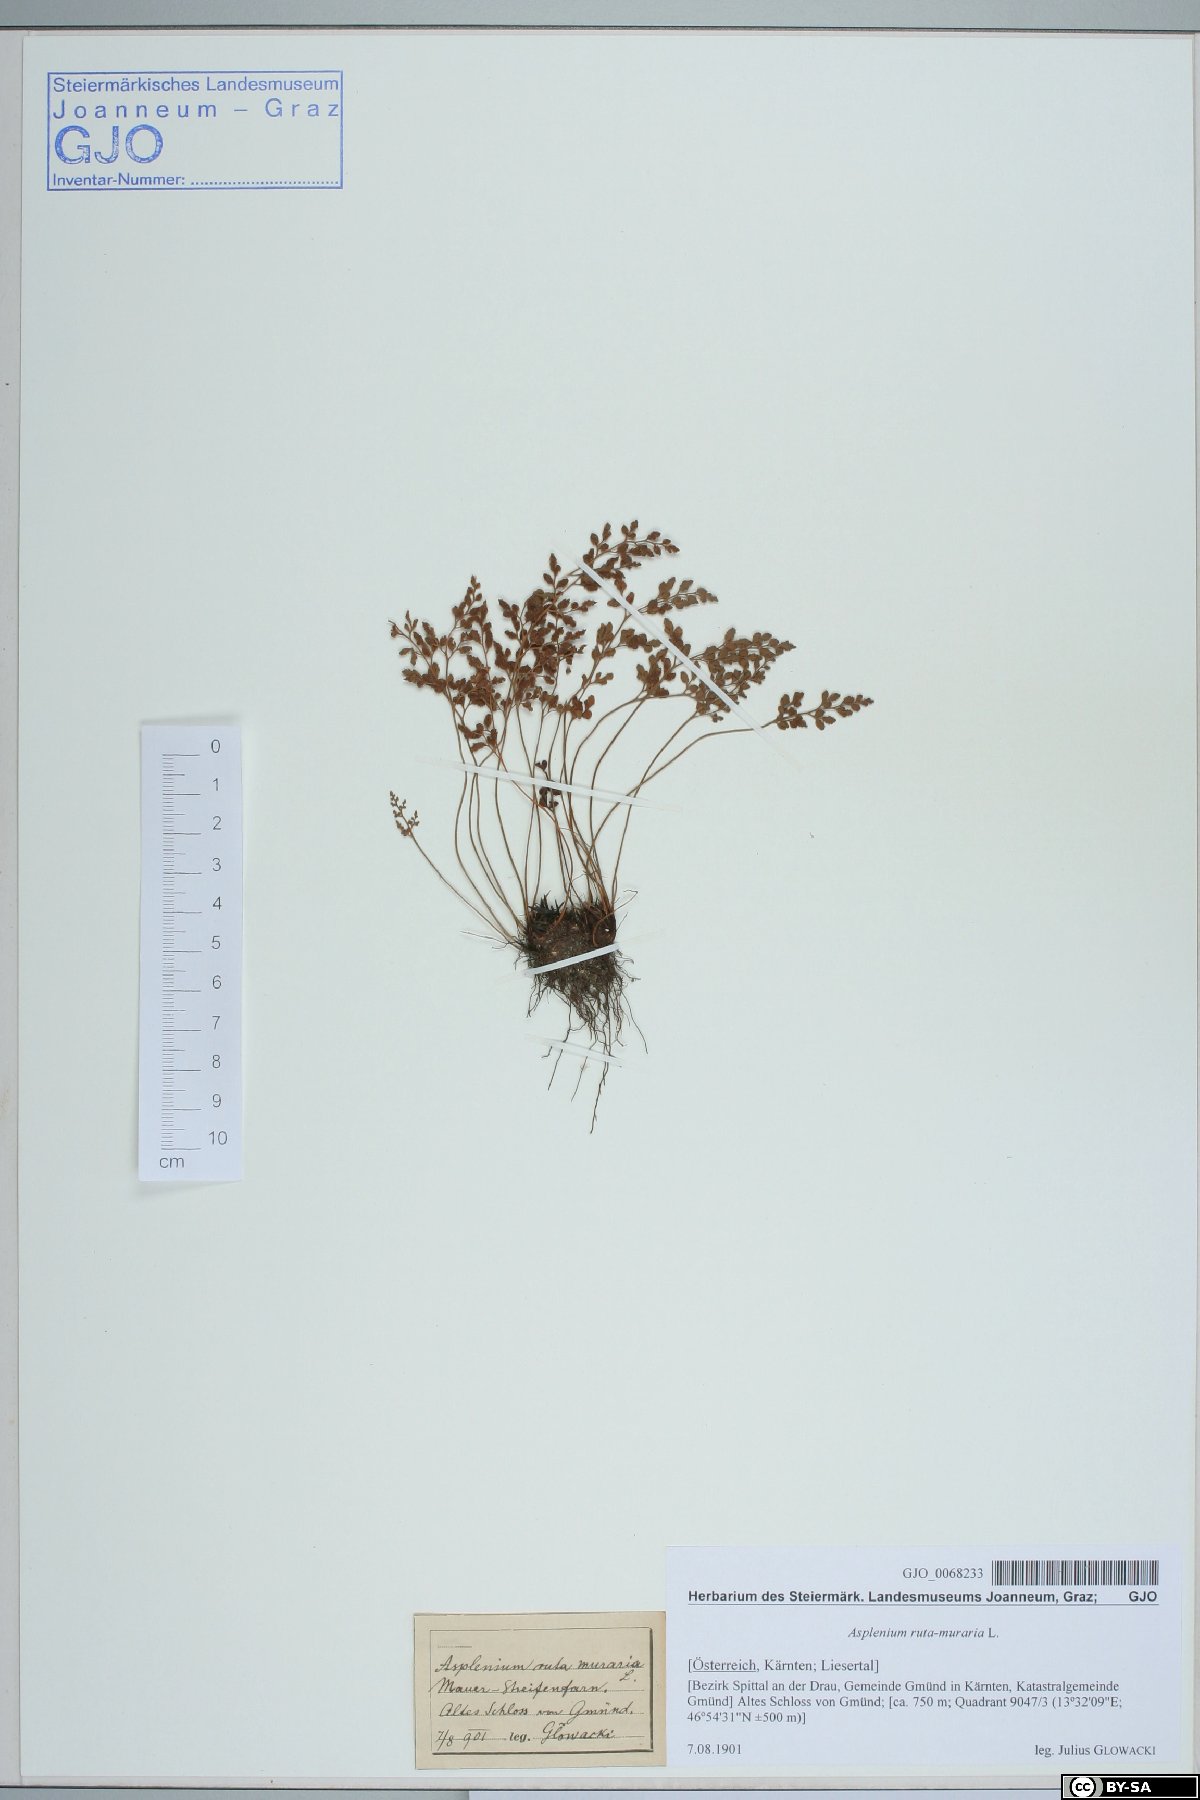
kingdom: Plantae
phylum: Tracheophyta
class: Polypodiopsida
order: Polypodiales
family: Aspleniaceae
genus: Asplenium
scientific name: Asplenium ruta-muraria
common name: Wall-rue
